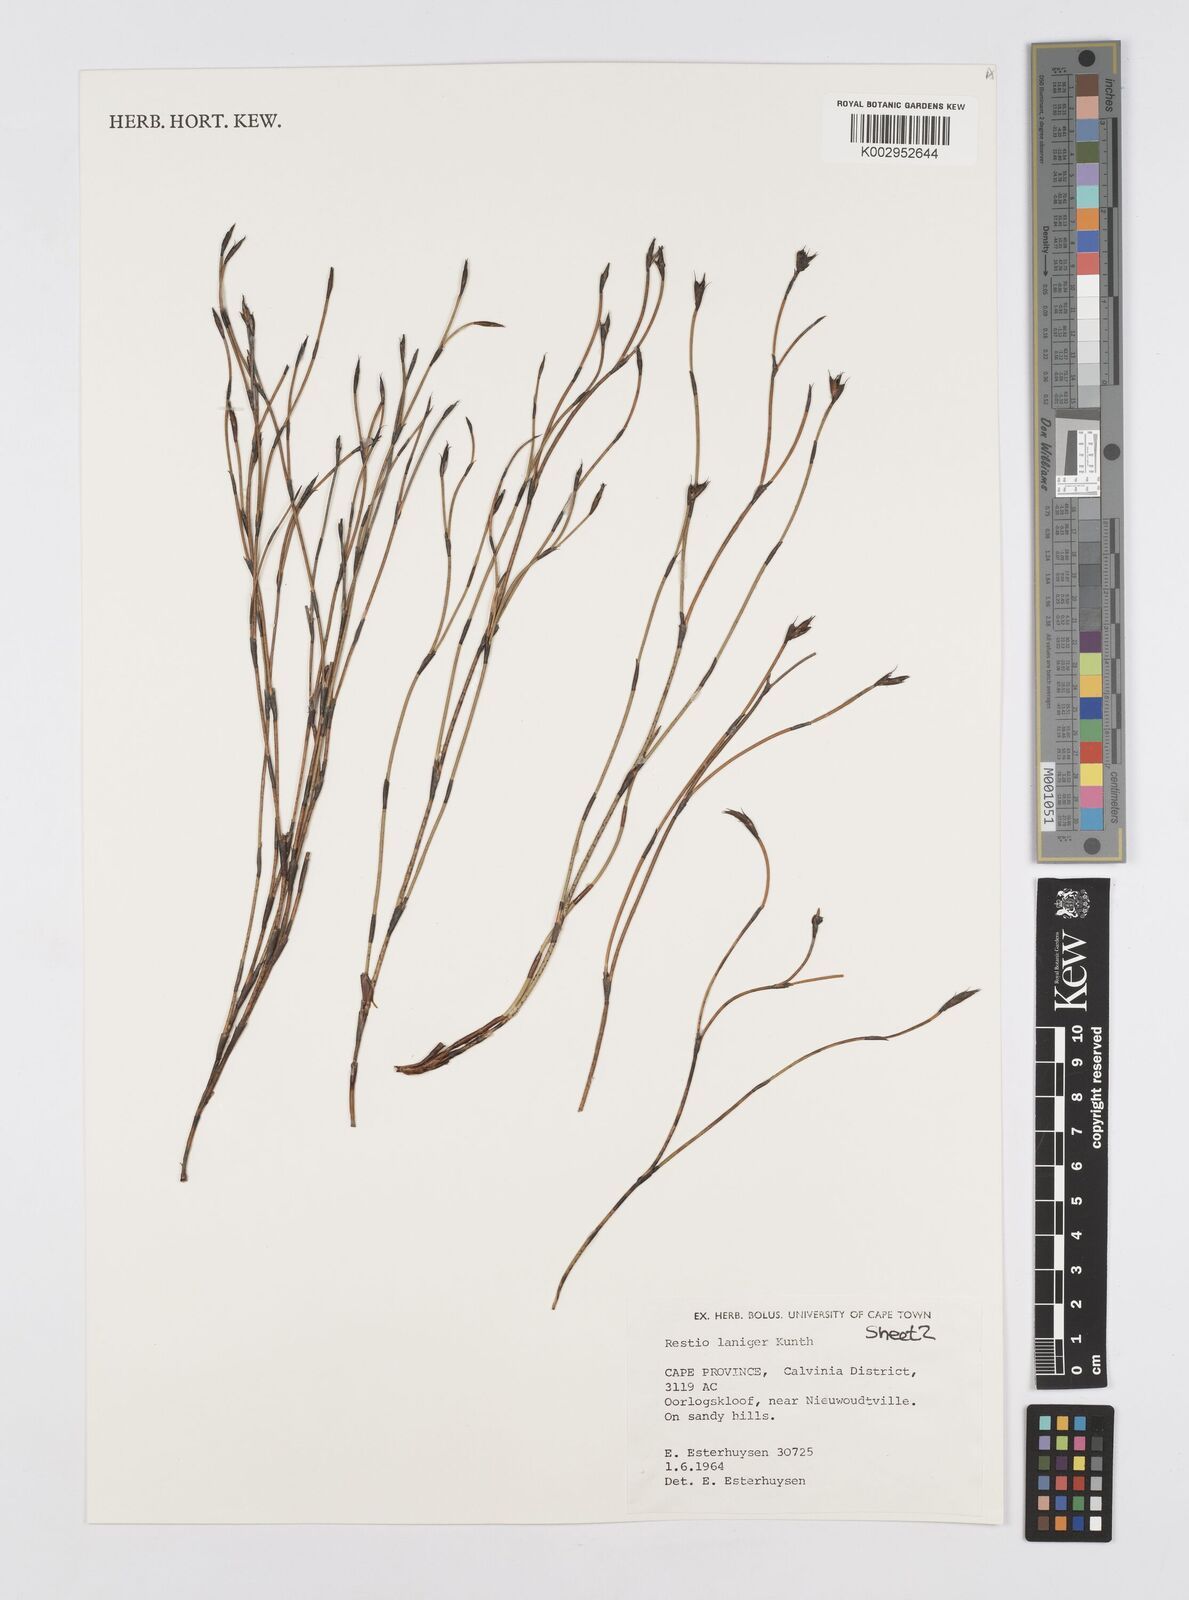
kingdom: Plantae
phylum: Tracheophyta
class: Liliopsida
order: Poales
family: Restionaceae
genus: Restio
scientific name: Restio laniger
